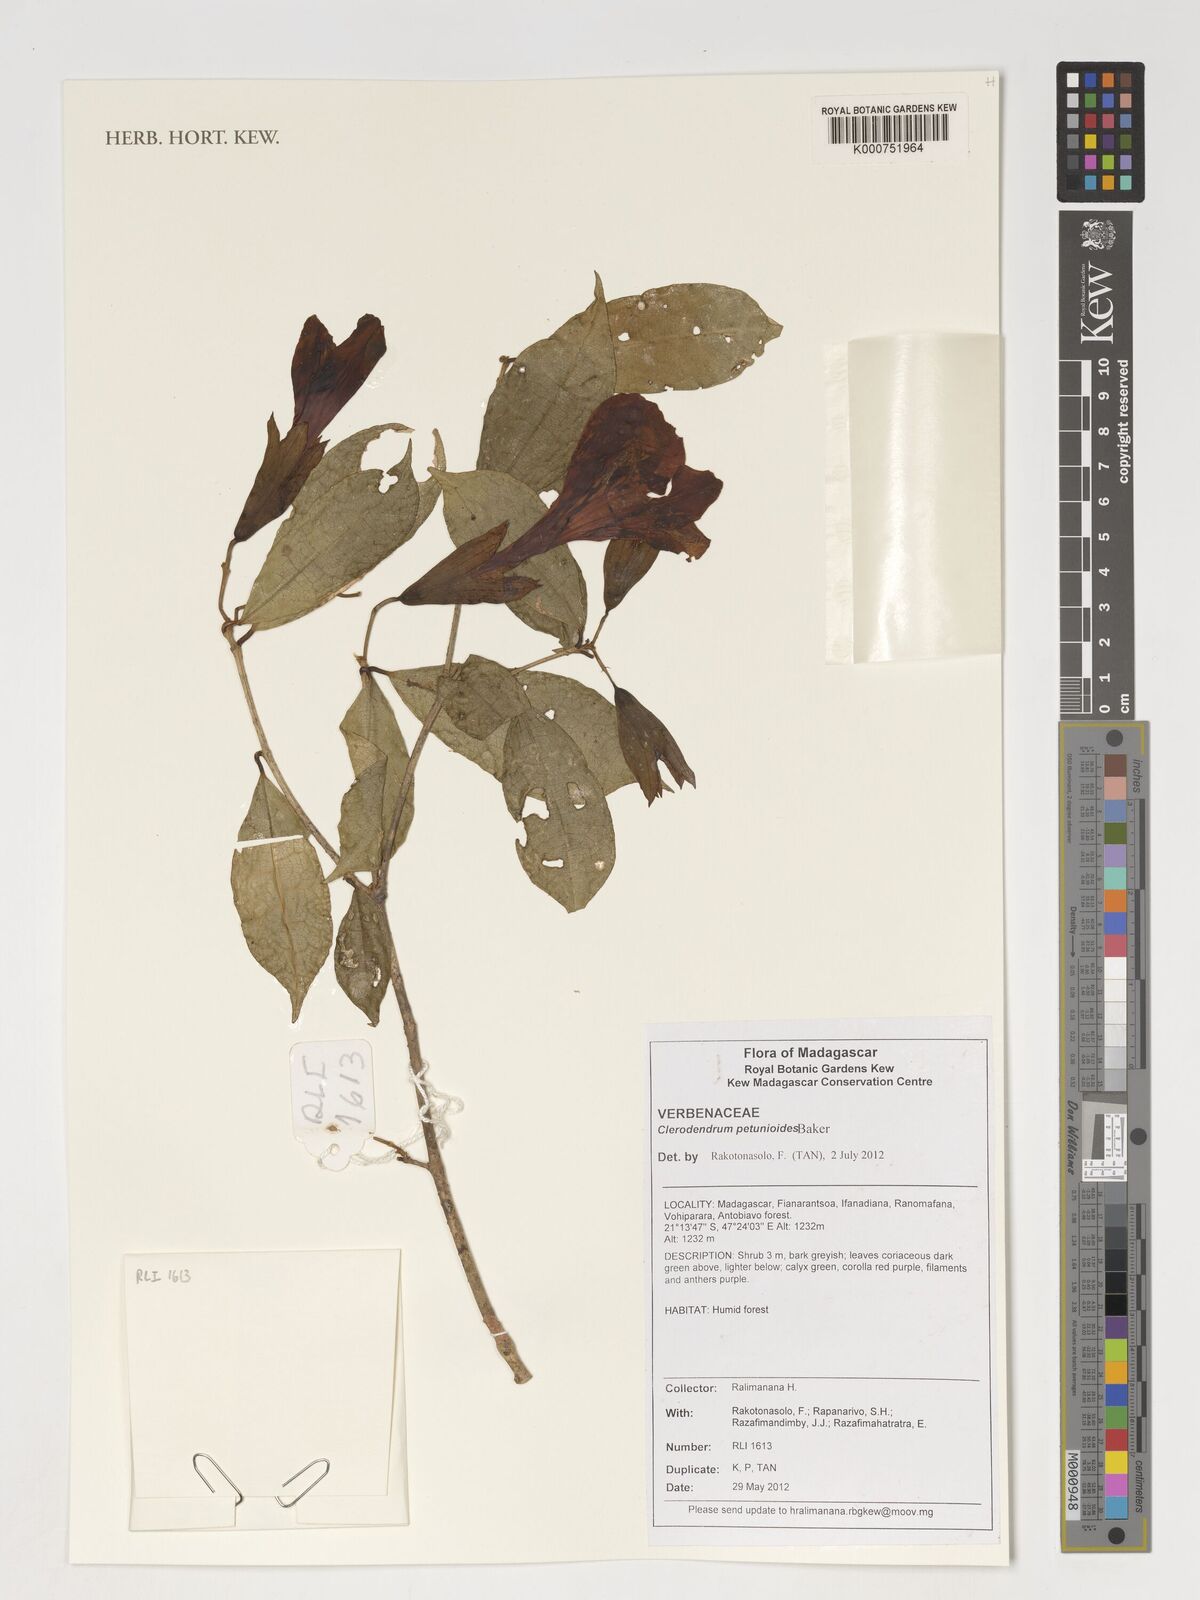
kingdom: Plantae
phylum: Tracheophyta
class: Magnoliopsida
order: Lamiales
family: Lamiaceae
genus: Clerodendrum
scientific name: Clerodendrum petunioides
